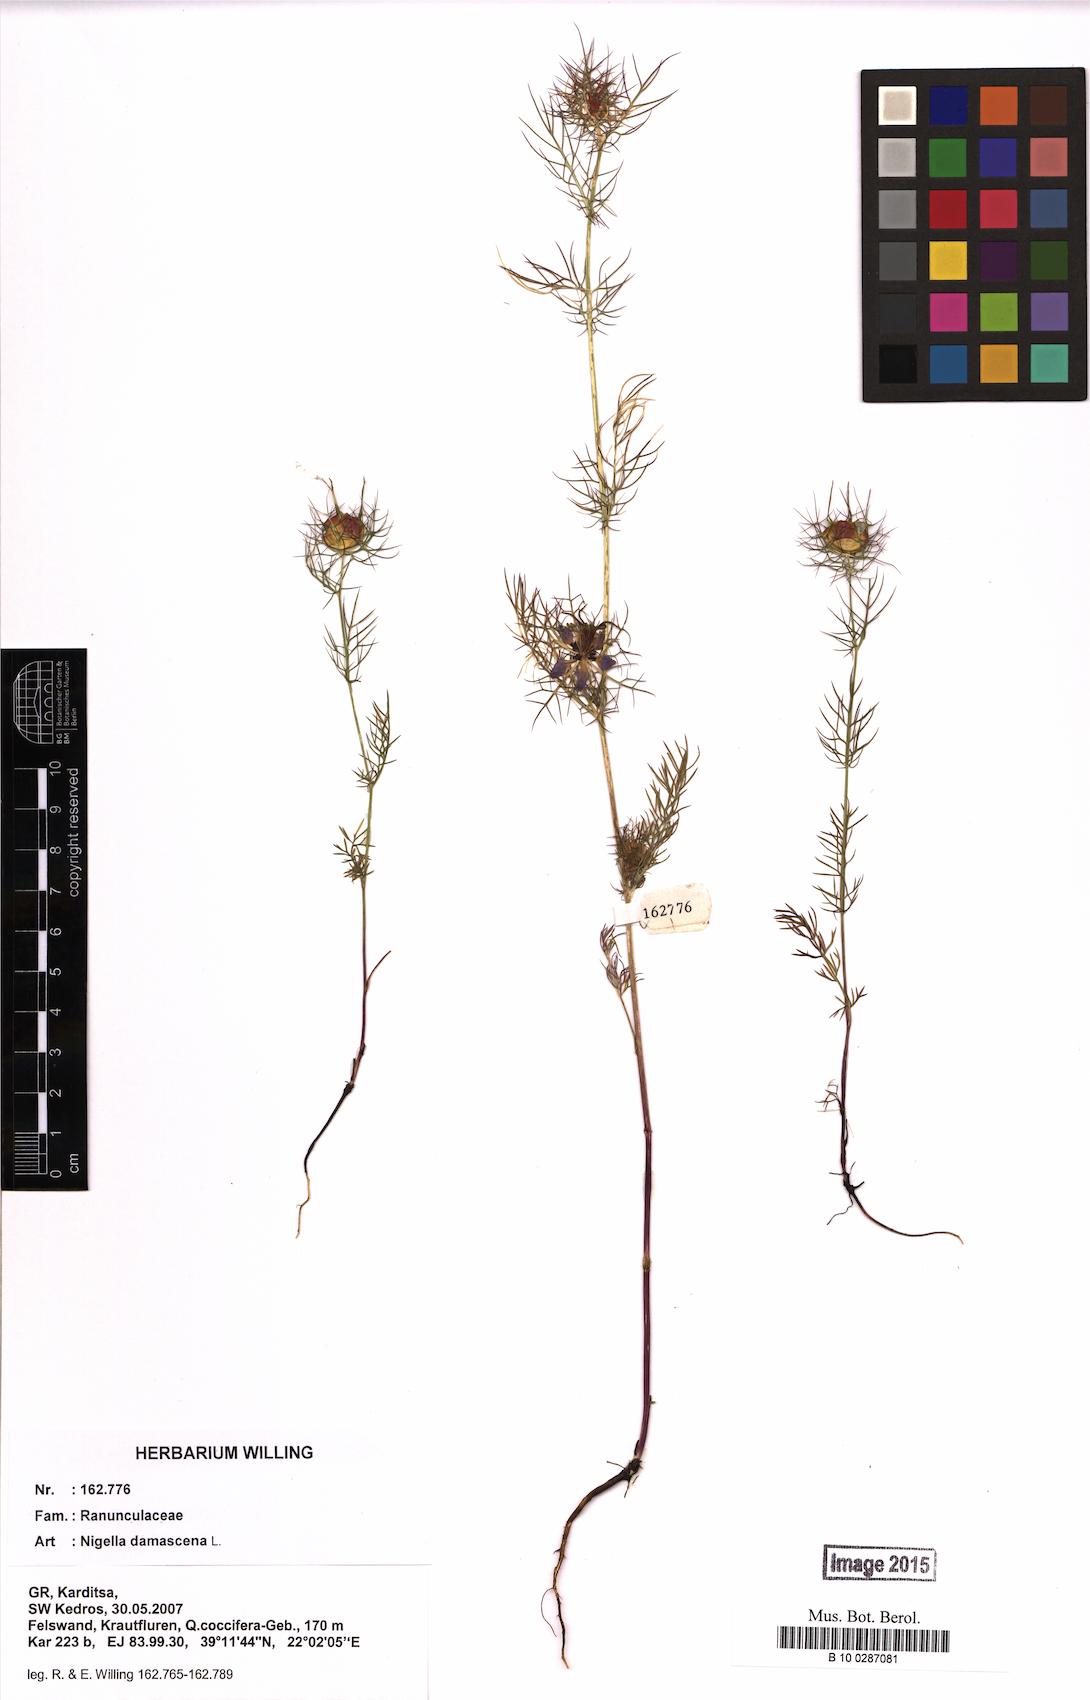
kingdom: Plantae
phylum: Tracheophyta
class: Magnoliopsida
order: Ranunculales
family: Ranunculaceae
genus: Nigella
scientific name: Nigella damascena
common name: Love-in-a-mist
